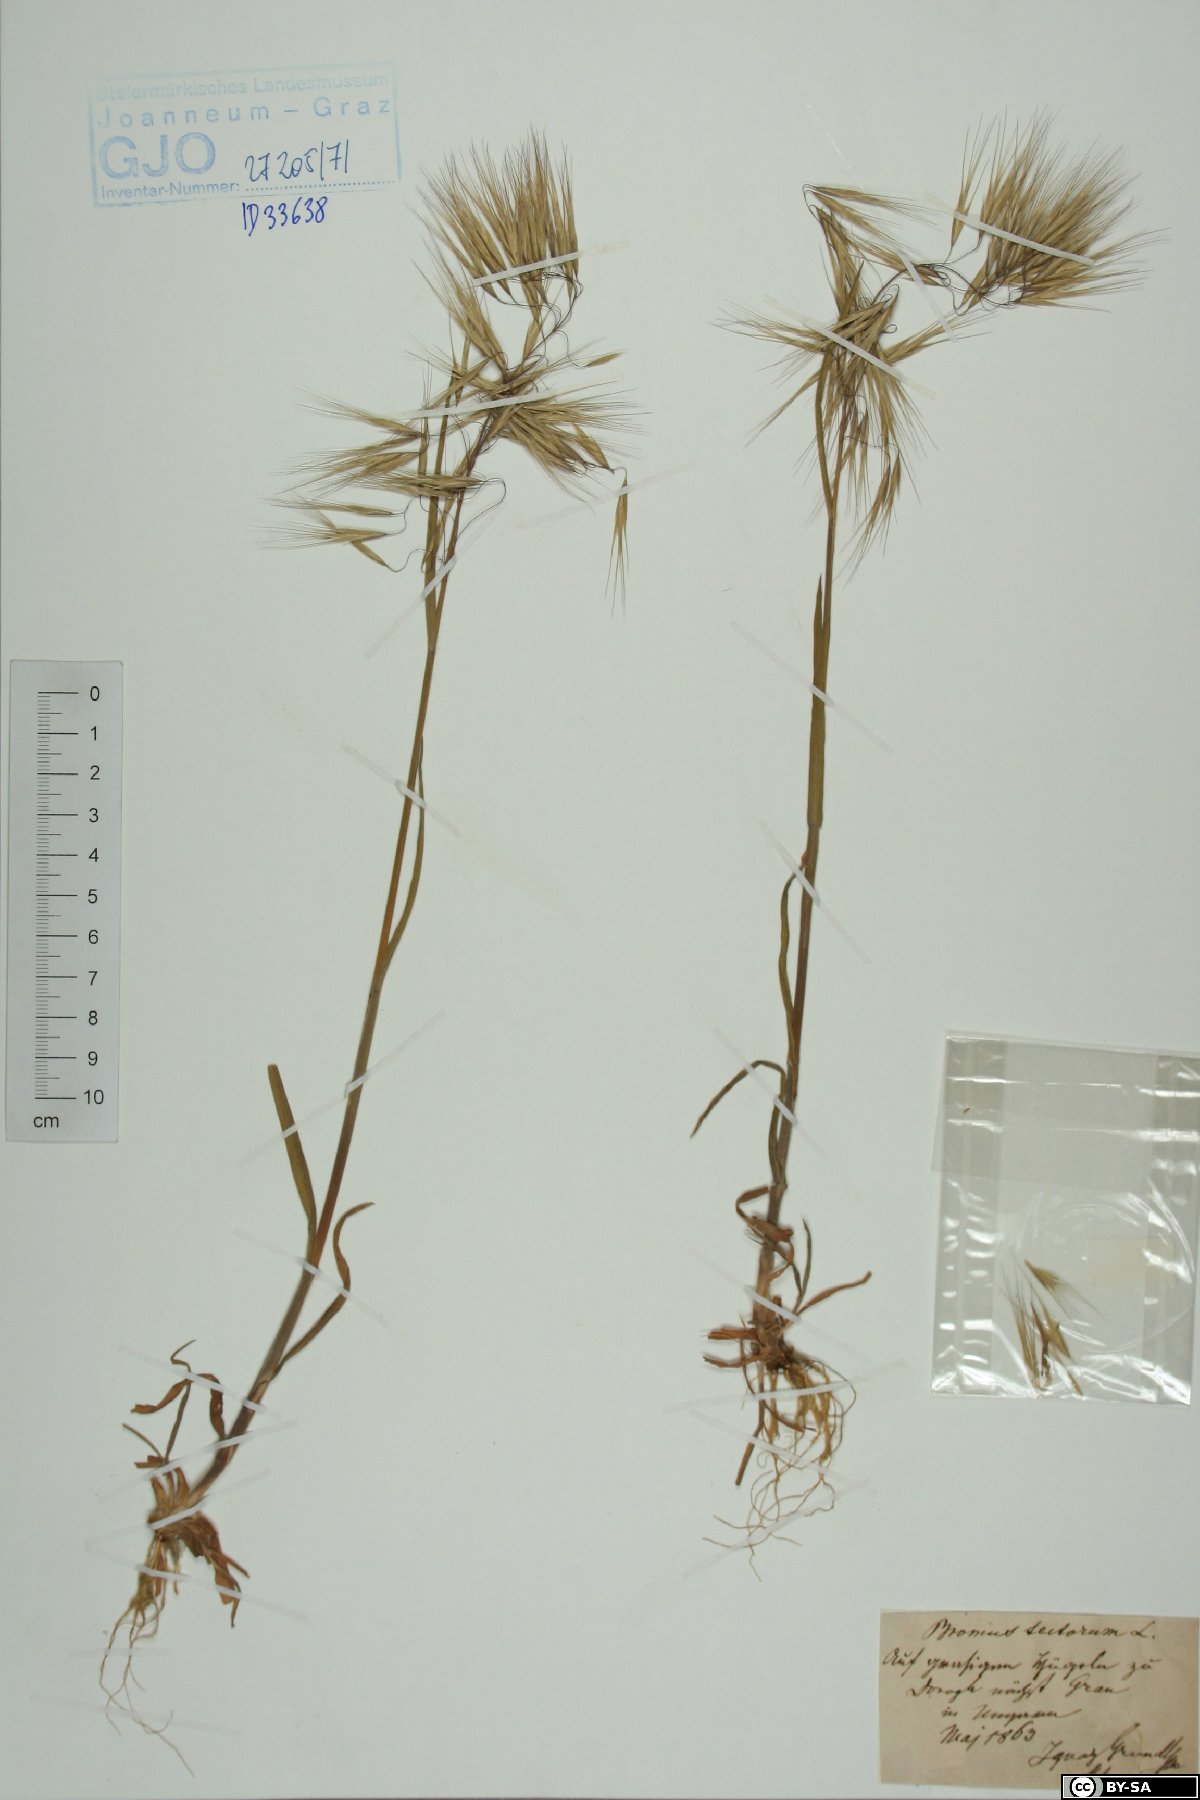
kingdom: Plantae
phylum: Tracheophyta
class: Liliopsida
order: Poales
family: Poaceae
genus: Bromus
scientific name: Bromus tectorum
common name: Cheatgrass
